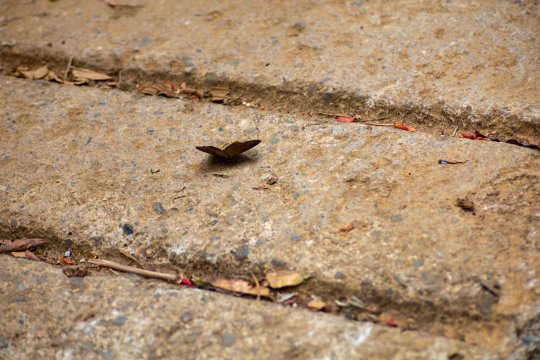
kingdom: Animalia
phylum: Arthropoda
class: Insecta
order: Lepidoptera
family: Nymphalidae
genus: Lymanopoda
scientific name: Lymanopoda obsoleta
